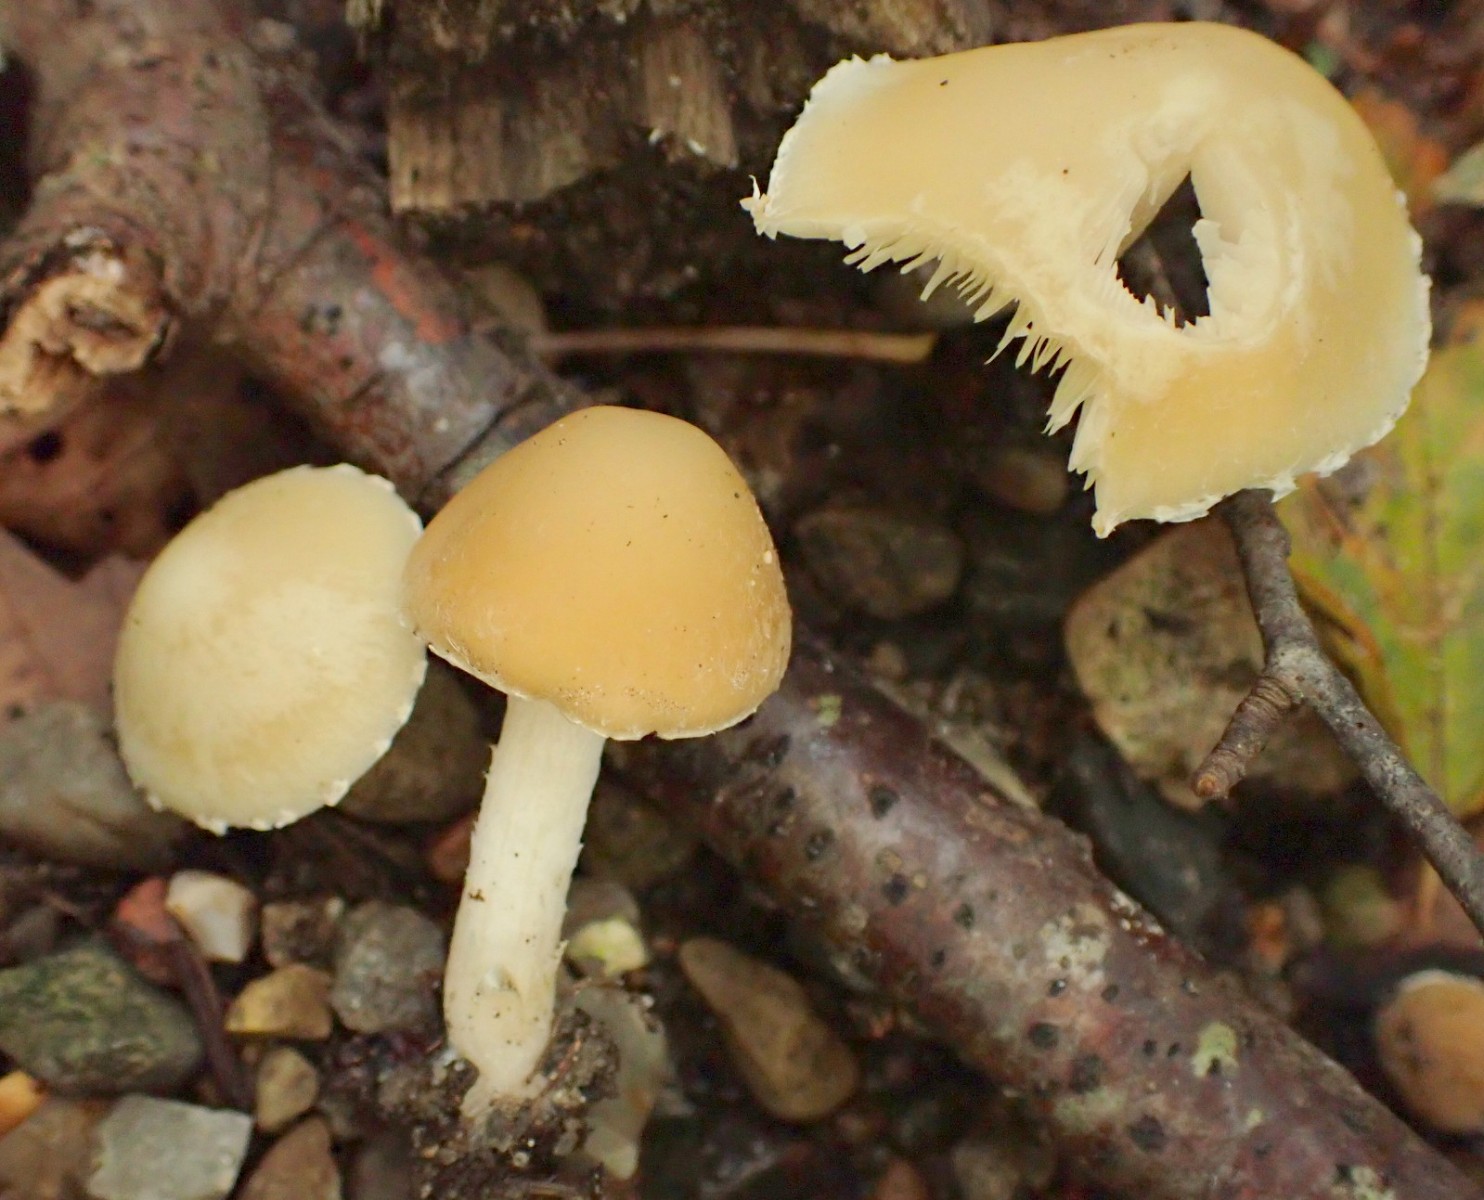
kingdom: Fungi
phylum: Basidiomycota
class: Agaricomycetes
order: Agaricales
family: Psathyrellaceae
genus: Candolleomyces
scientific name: Candolleomyces candolleanus
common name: Candolles mørkhat
